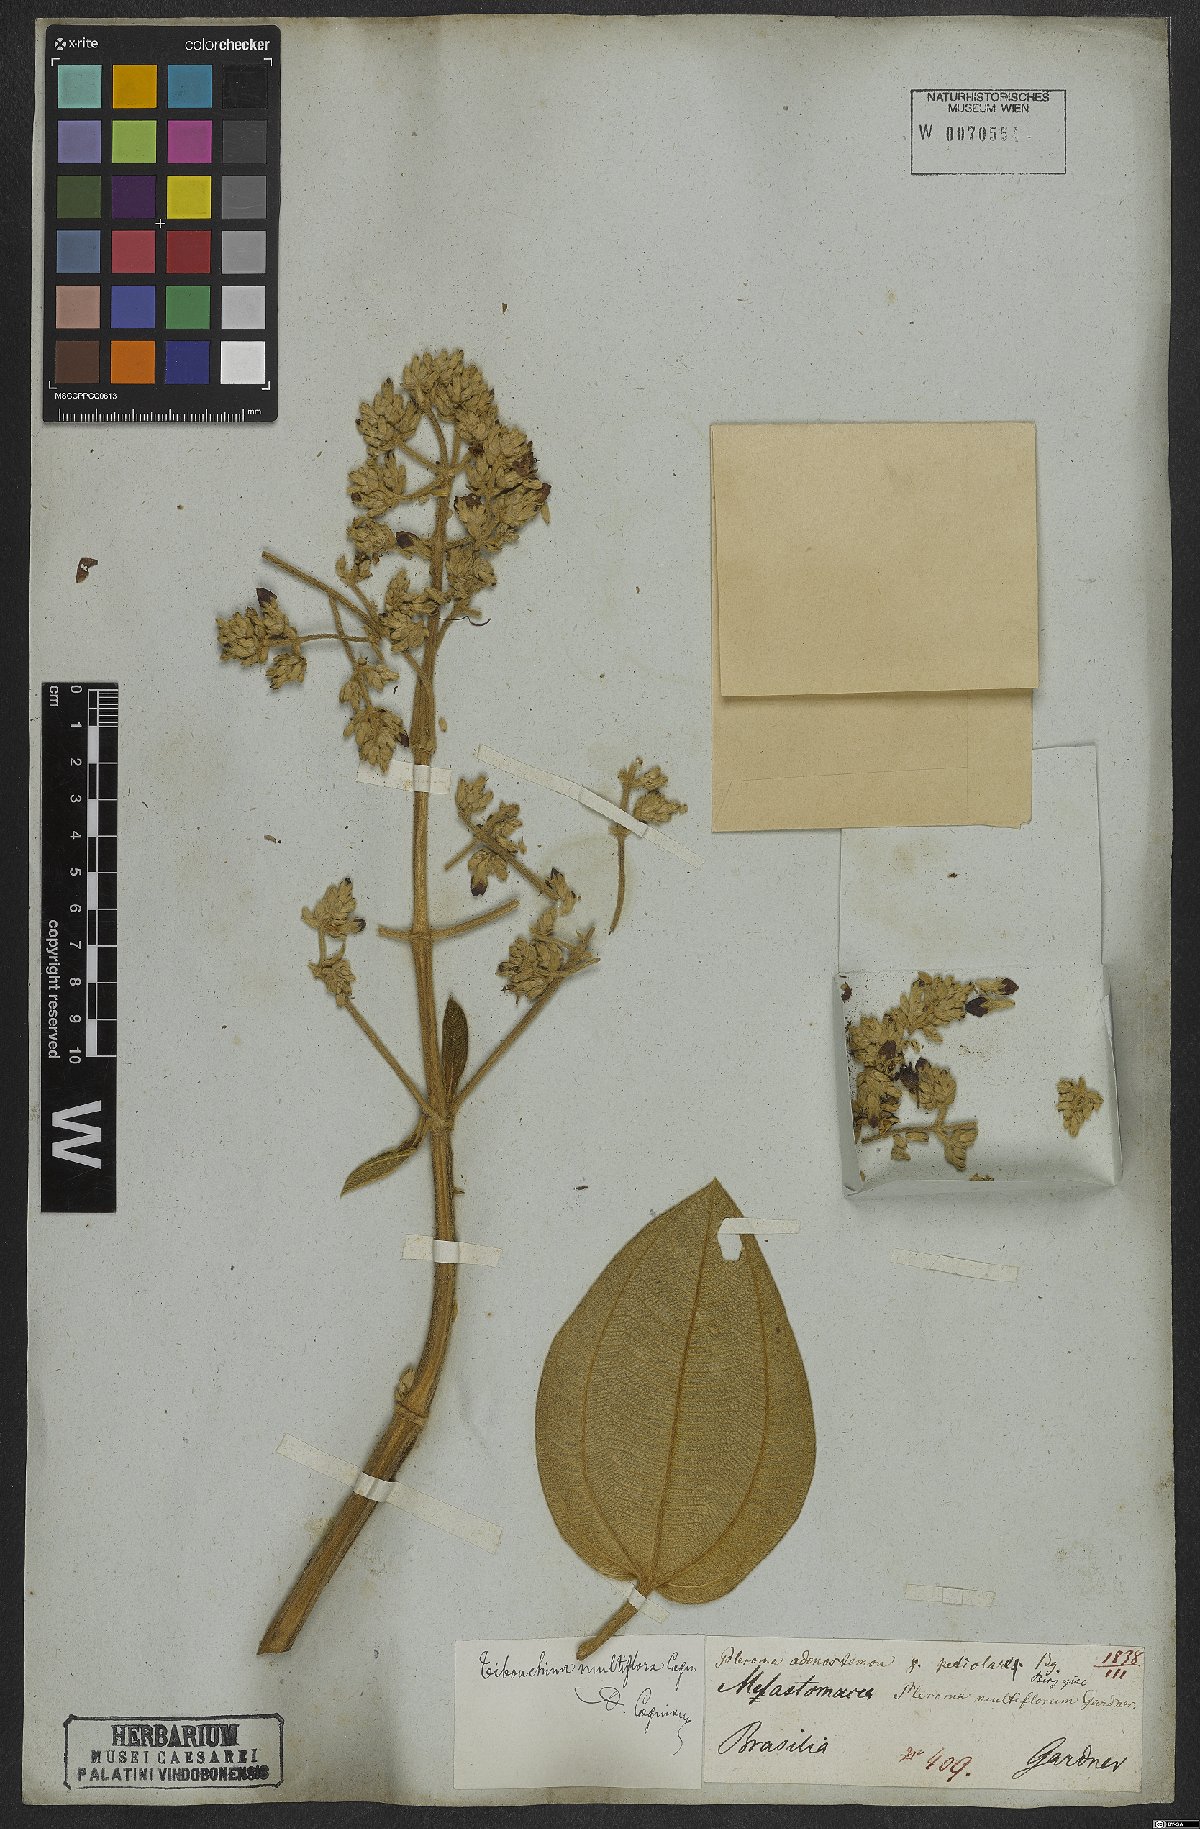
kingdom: Plantae
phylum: Tracheophyta
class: Magnoliopsida
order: Myrtales
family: Melastomataceae
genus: Pleroma
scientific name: Pleroma heteromallum
